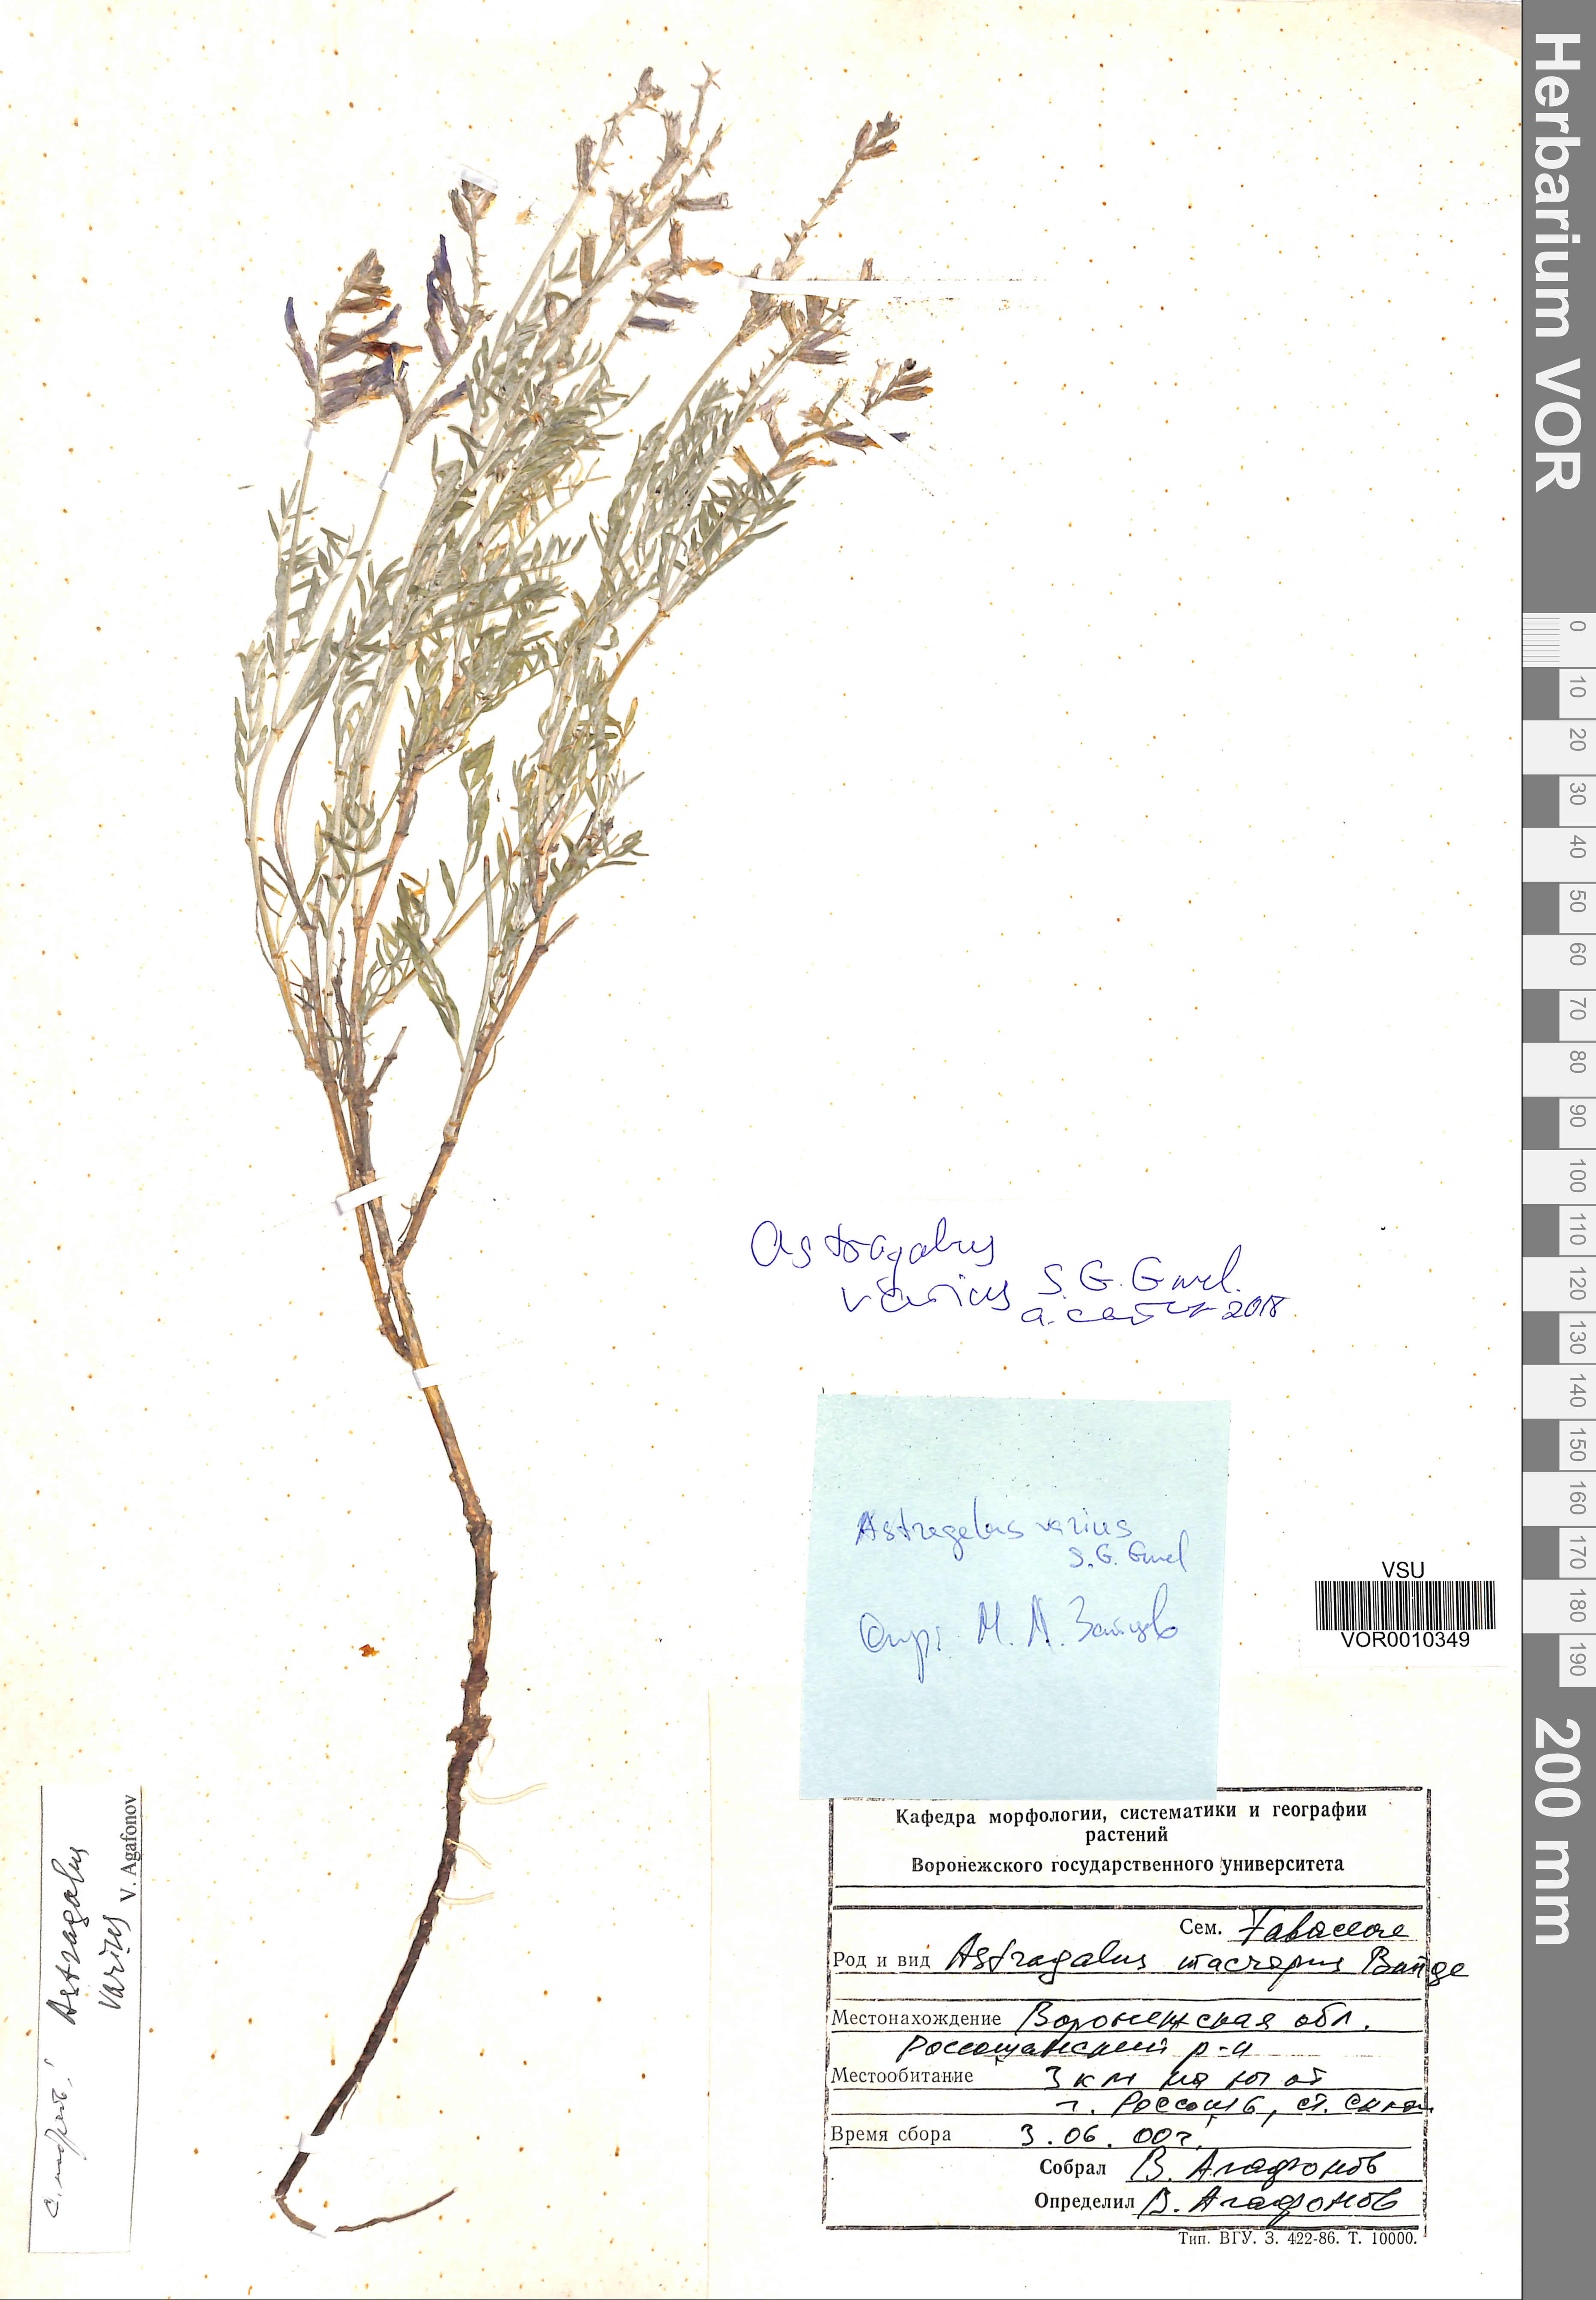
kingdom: Plantae
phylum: Tracheophyta
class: Magnoliopsida
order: Fabales
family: Fabaceae
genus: Astragalus
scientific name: Astragalus varius
